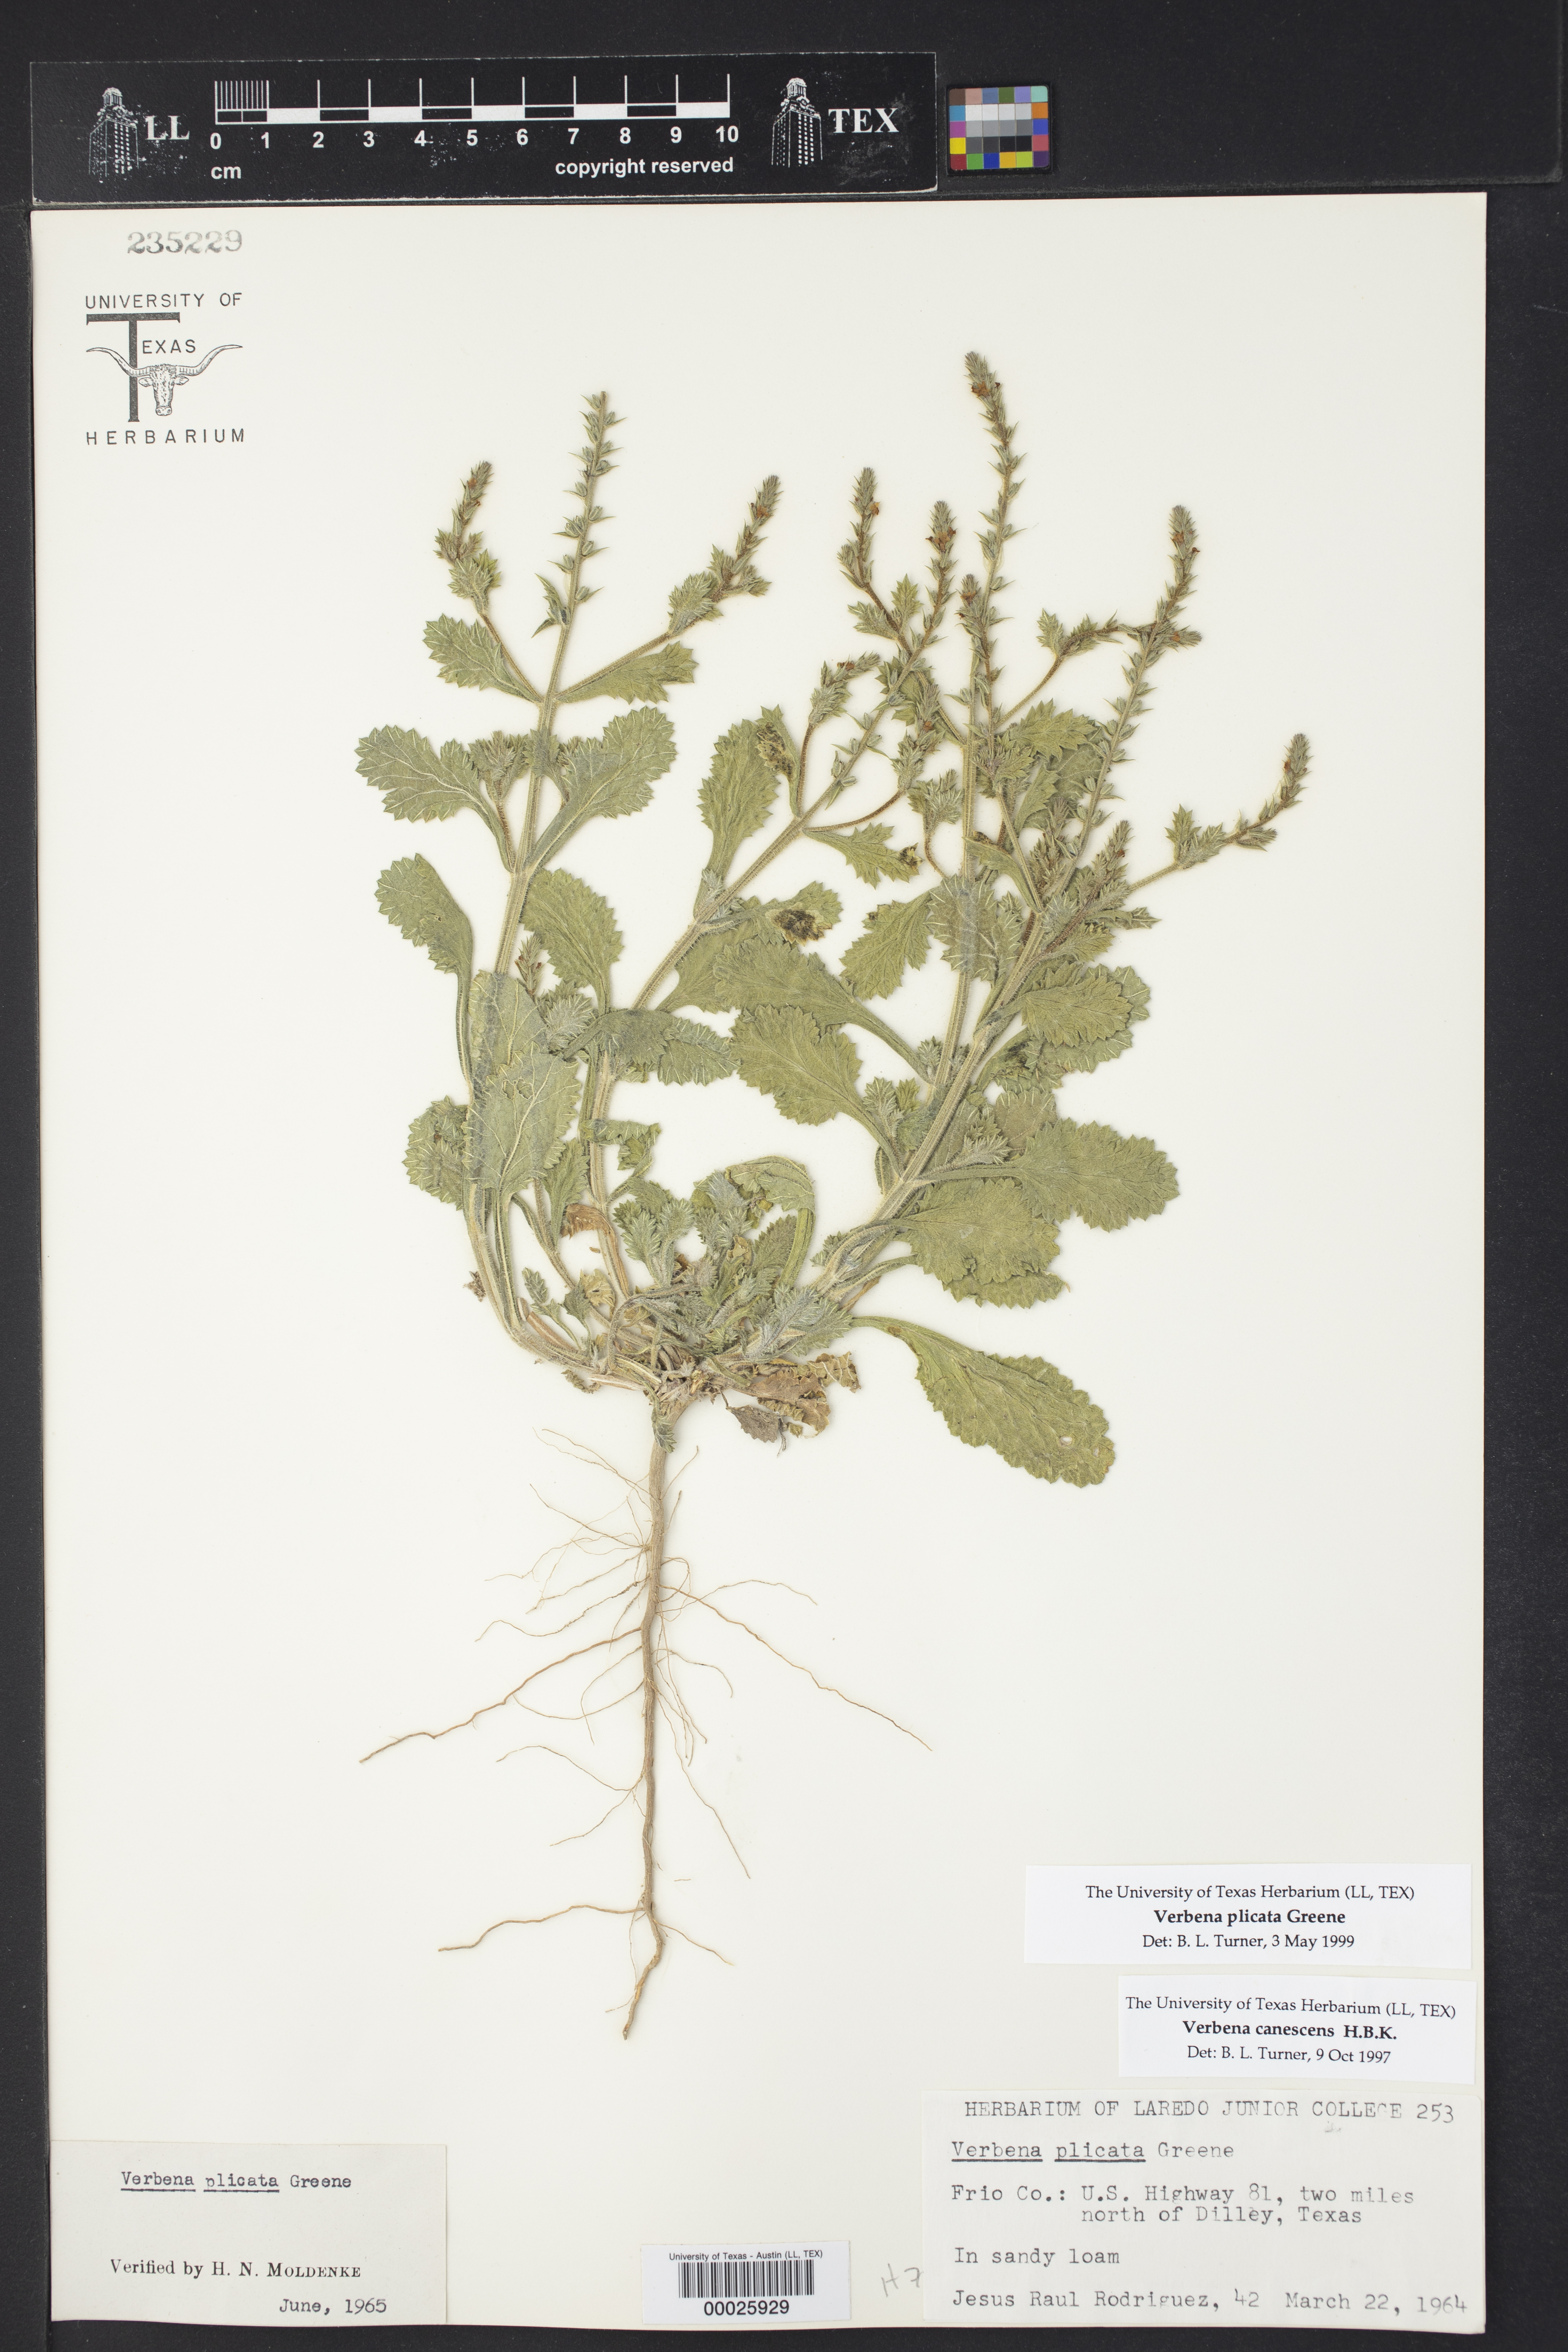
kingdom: Plantae
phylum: Tracheophyta
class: Magnoliopsida
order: Lamiales
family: Verbenaceae
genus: Verbena
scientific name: Verbena plicata
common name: Fan-leaf vervain
